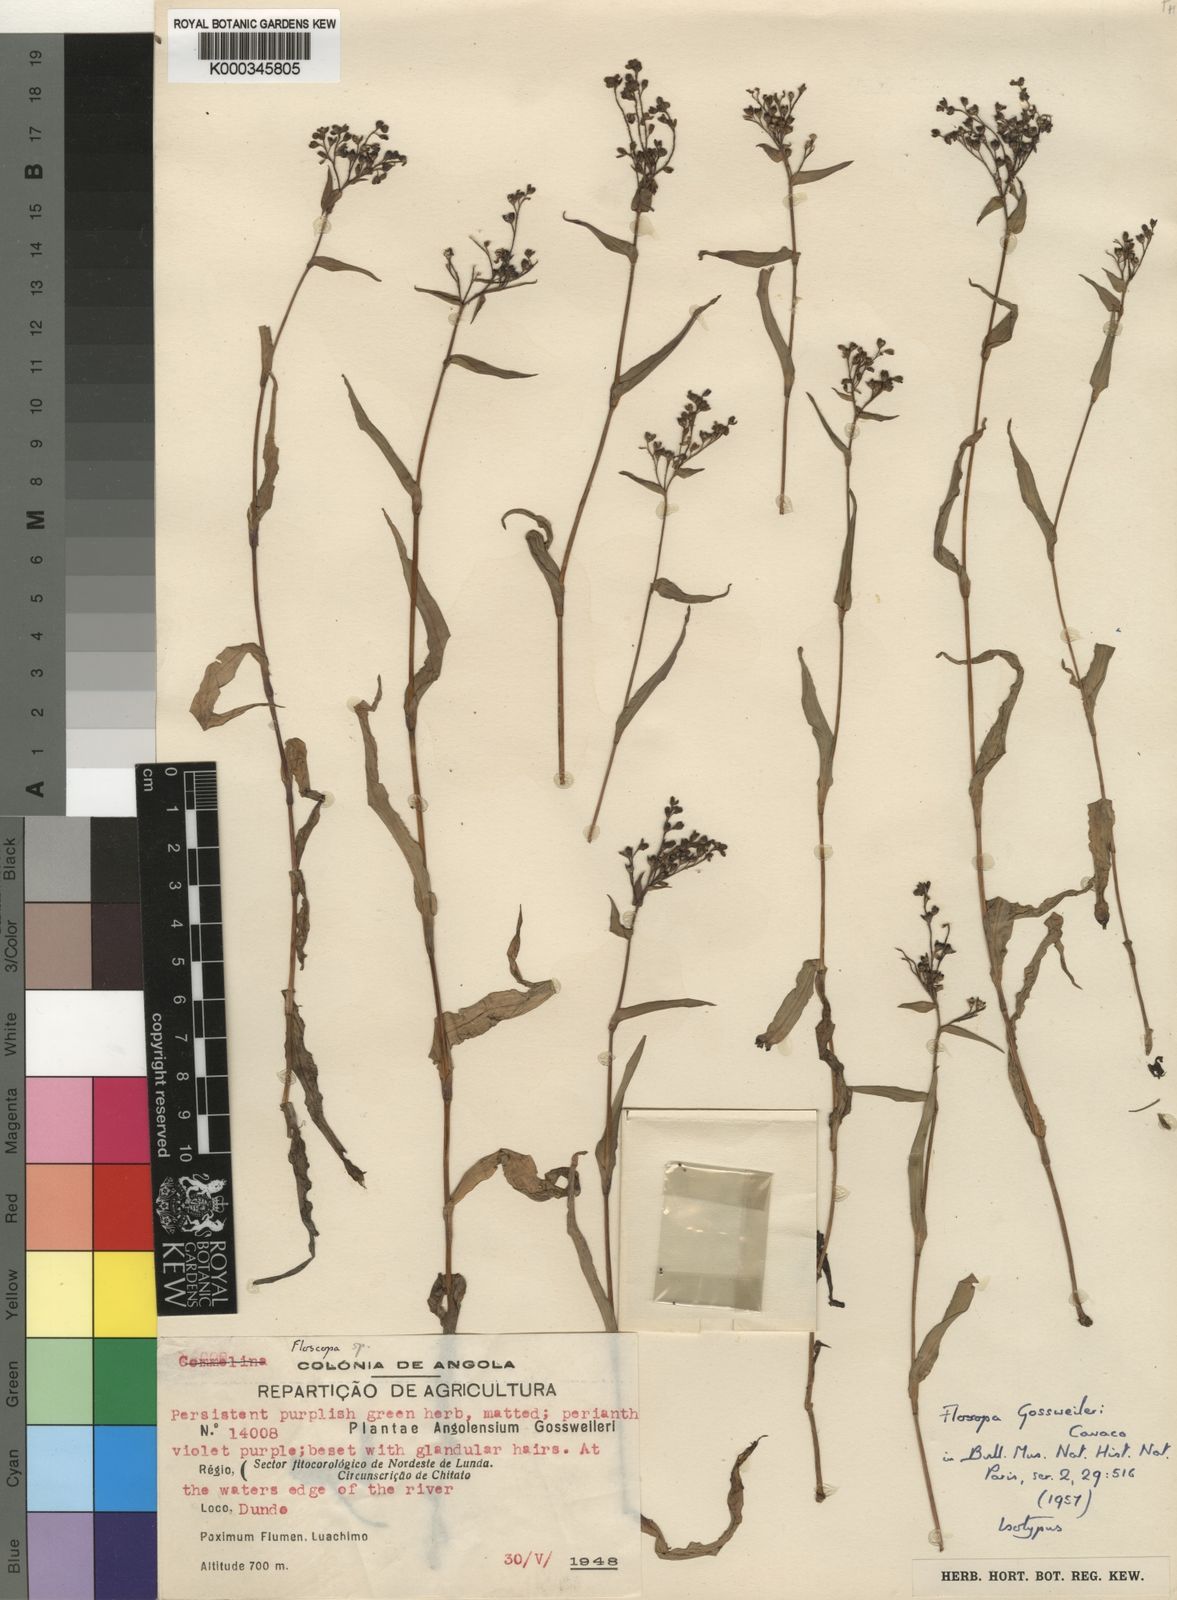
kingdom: Plantae
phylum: Tracheophyta
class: Liliopsida
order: Commelinales
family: Commelinaceae
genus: Floscopa
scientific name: Floscopa gossweileri
